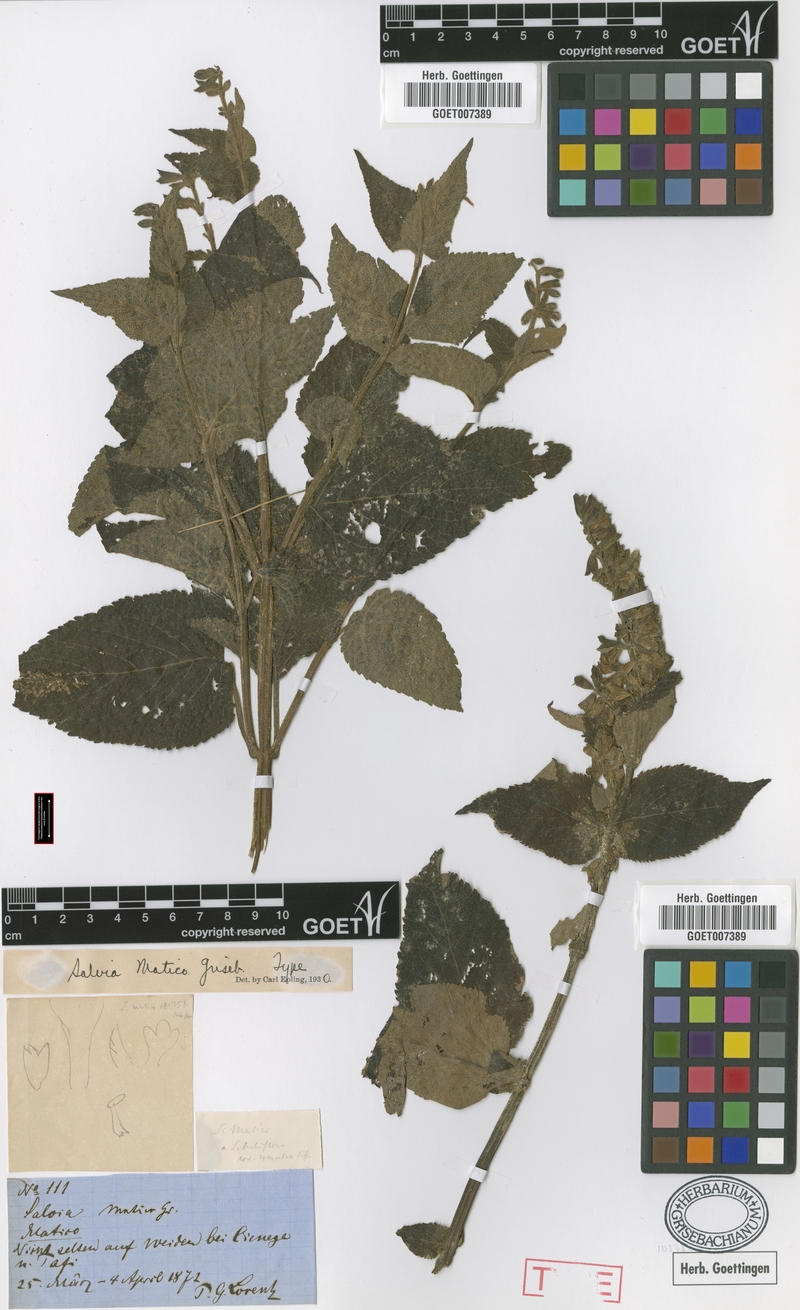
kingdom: Plantae
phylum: Tracheophyta
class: Magnoliopsida
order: Lamiales
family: Lamiaceae
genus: Salvia
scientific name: Salvia stachydifolia
